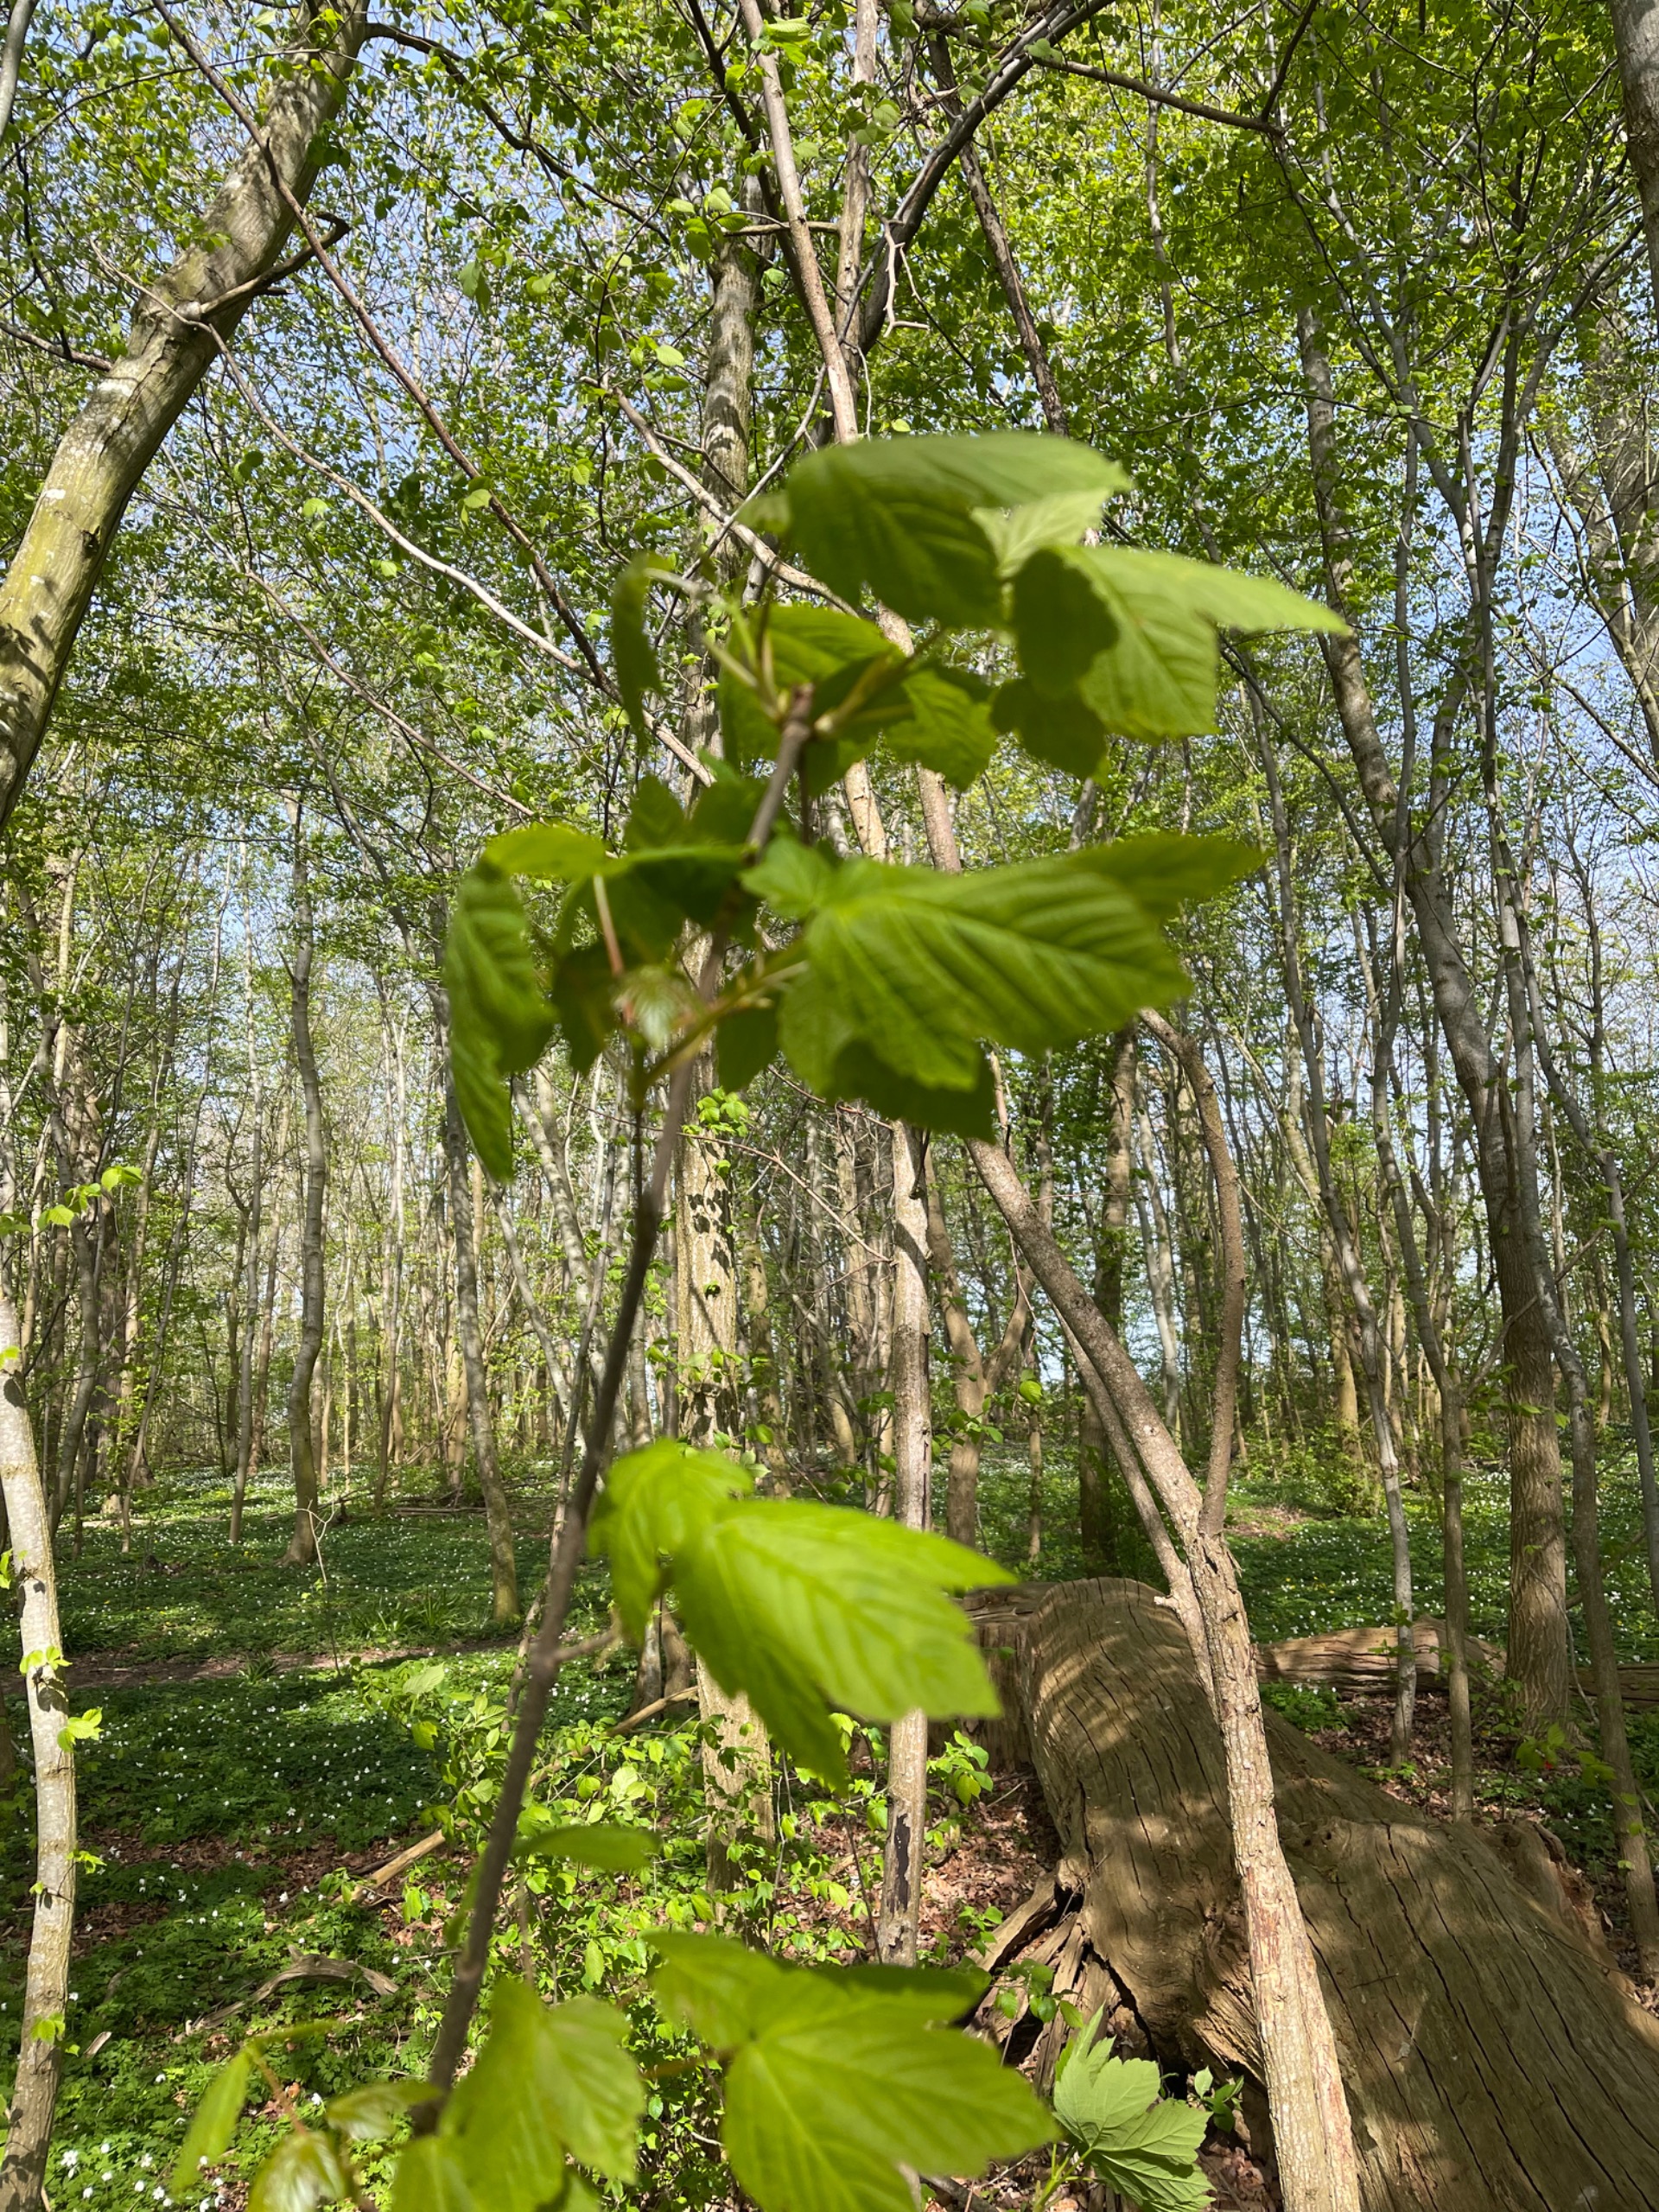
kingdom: Plantae
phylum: Tracheophyta
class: Magnoliopsida
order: Sapindales
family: Sapindaceae
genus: Acer
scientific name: Acer pseudoplatanus
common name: Ahorn
